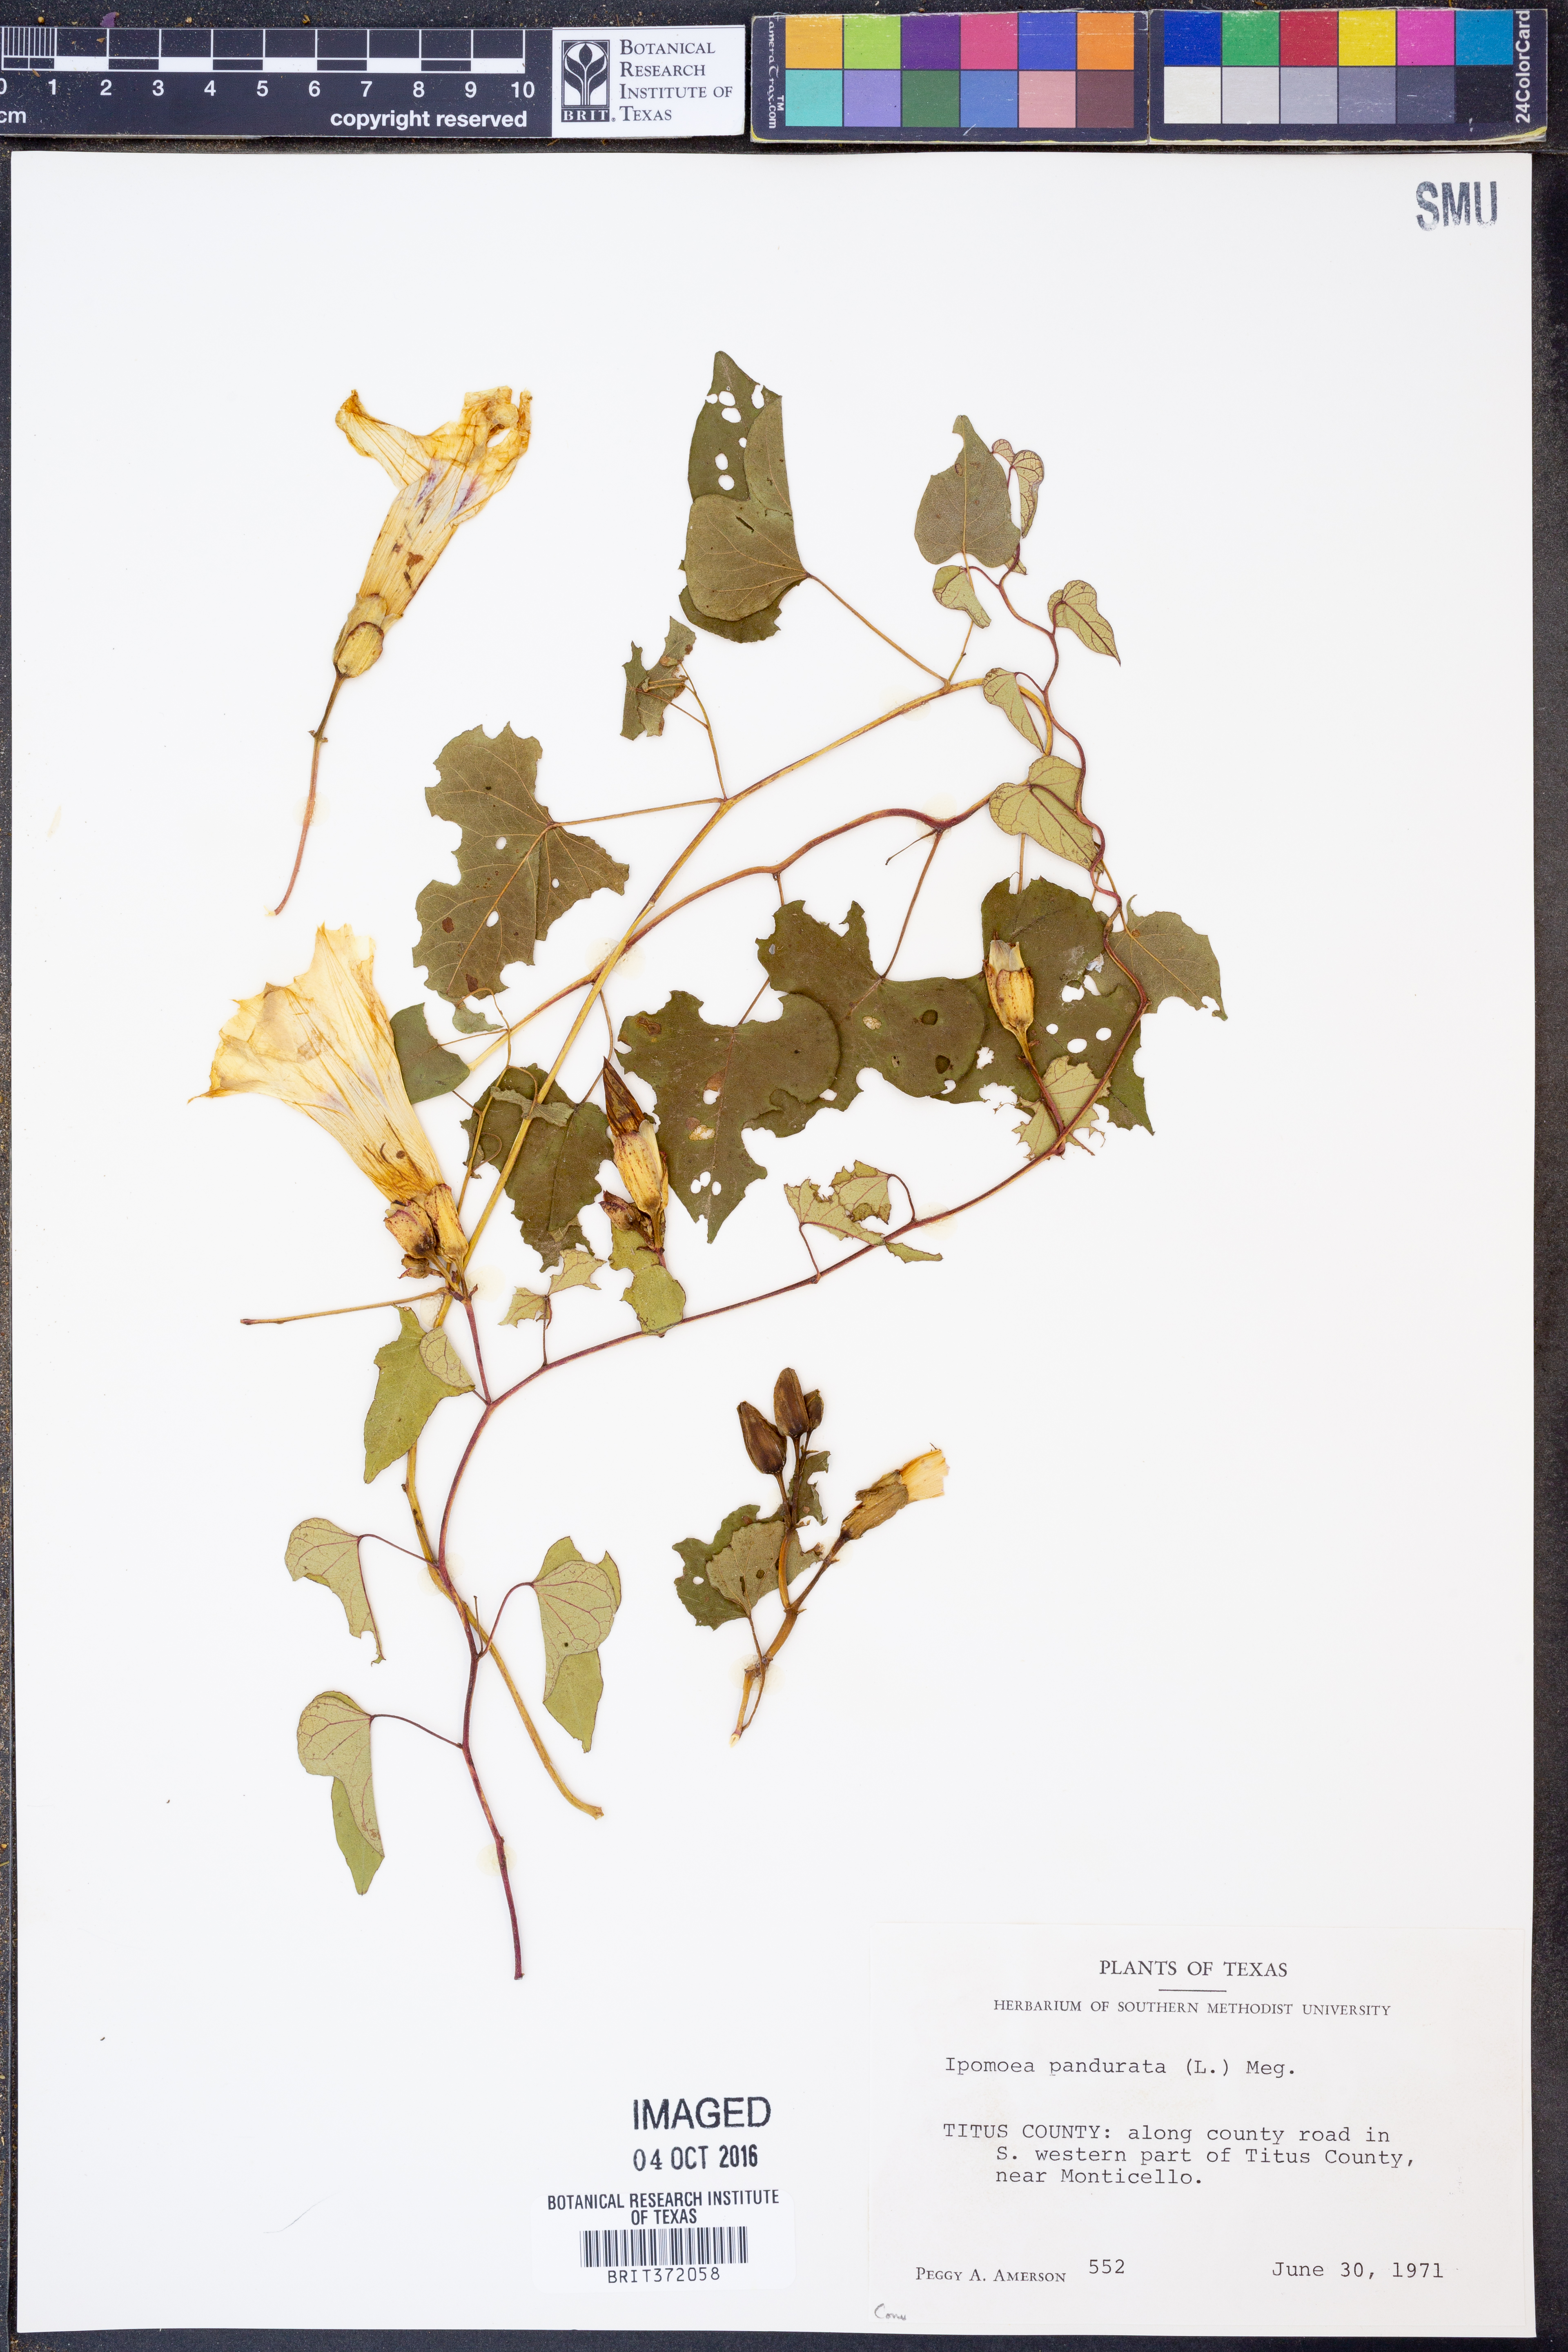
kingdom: Plantae
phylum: Tracheophyta
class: Magnoliopsida
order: Solanales
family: Convolvulaceae
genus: Ipomoea
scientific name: Ipomoea pandurata
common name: Man-of-the-earth
